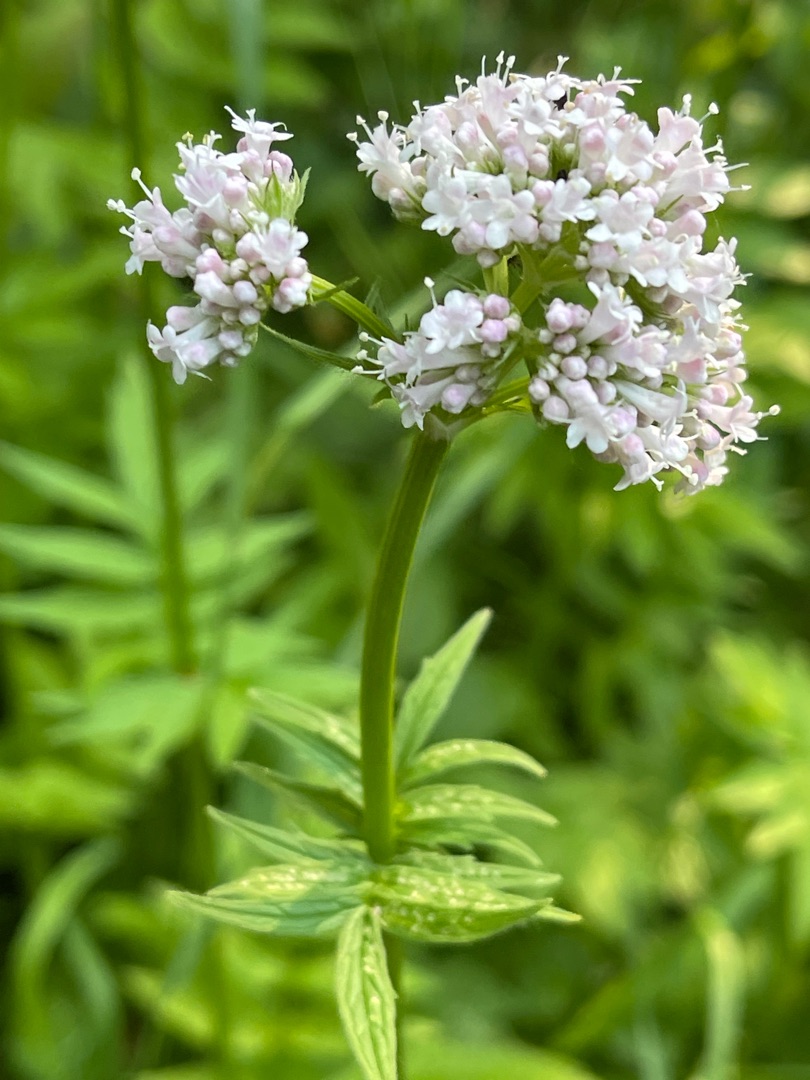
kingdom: Plantae
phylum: Tracheophyta
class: Magnoliopsida
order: Dipsacales
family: Caprifoliaceae
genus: Valeriana
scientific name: Valeriana sambucifolia
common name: Hyldebladet baldrian
